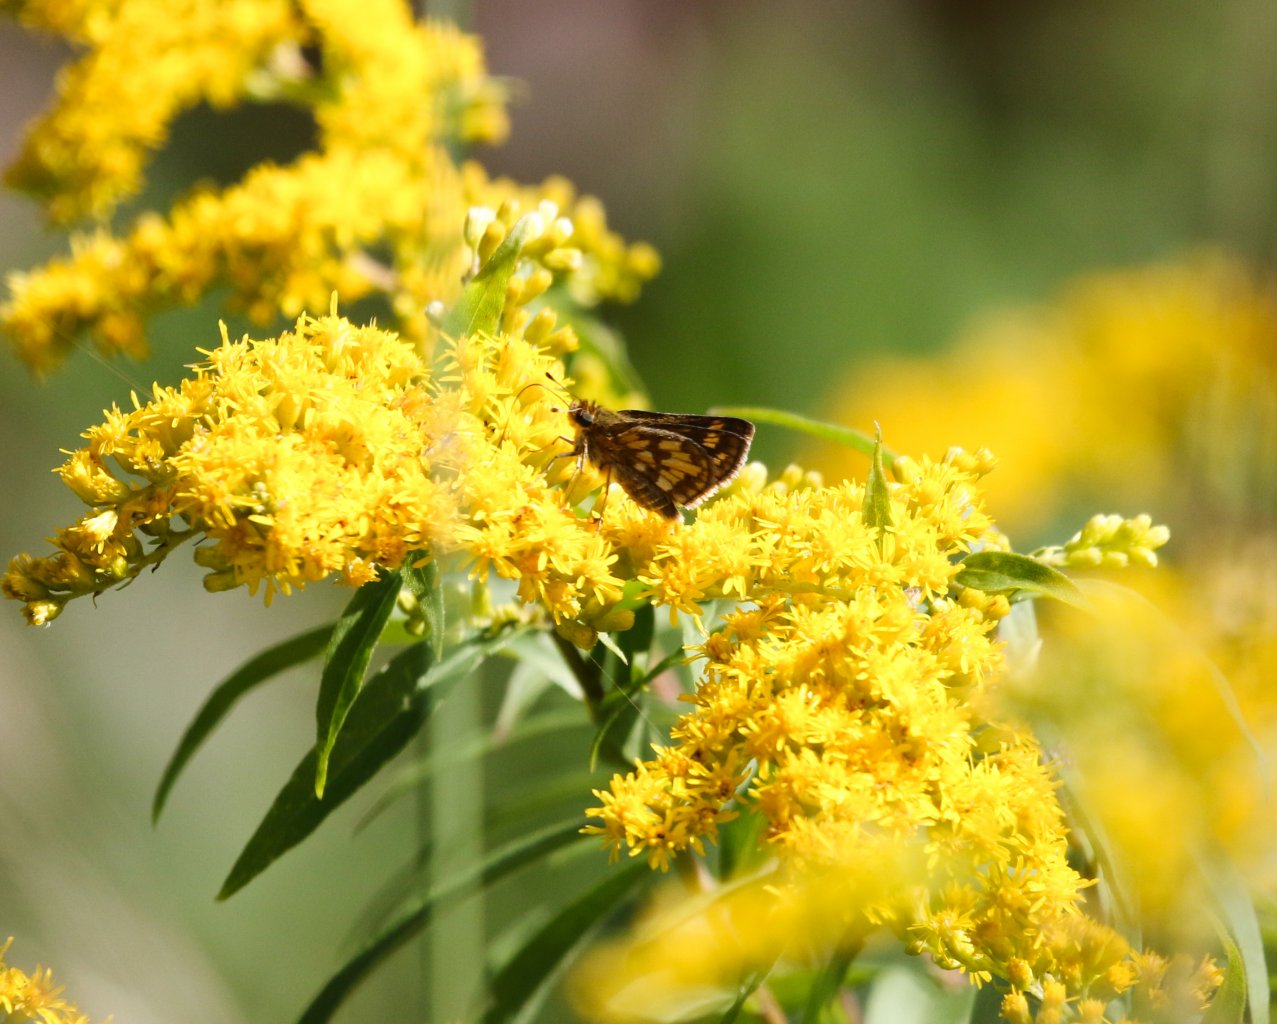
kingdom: Animalia
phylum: Arthropoda
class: Insecta
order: Lepidoptera
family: Hesperiidae
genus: Polites
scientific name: Polites coras
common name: Peck's Skipper
